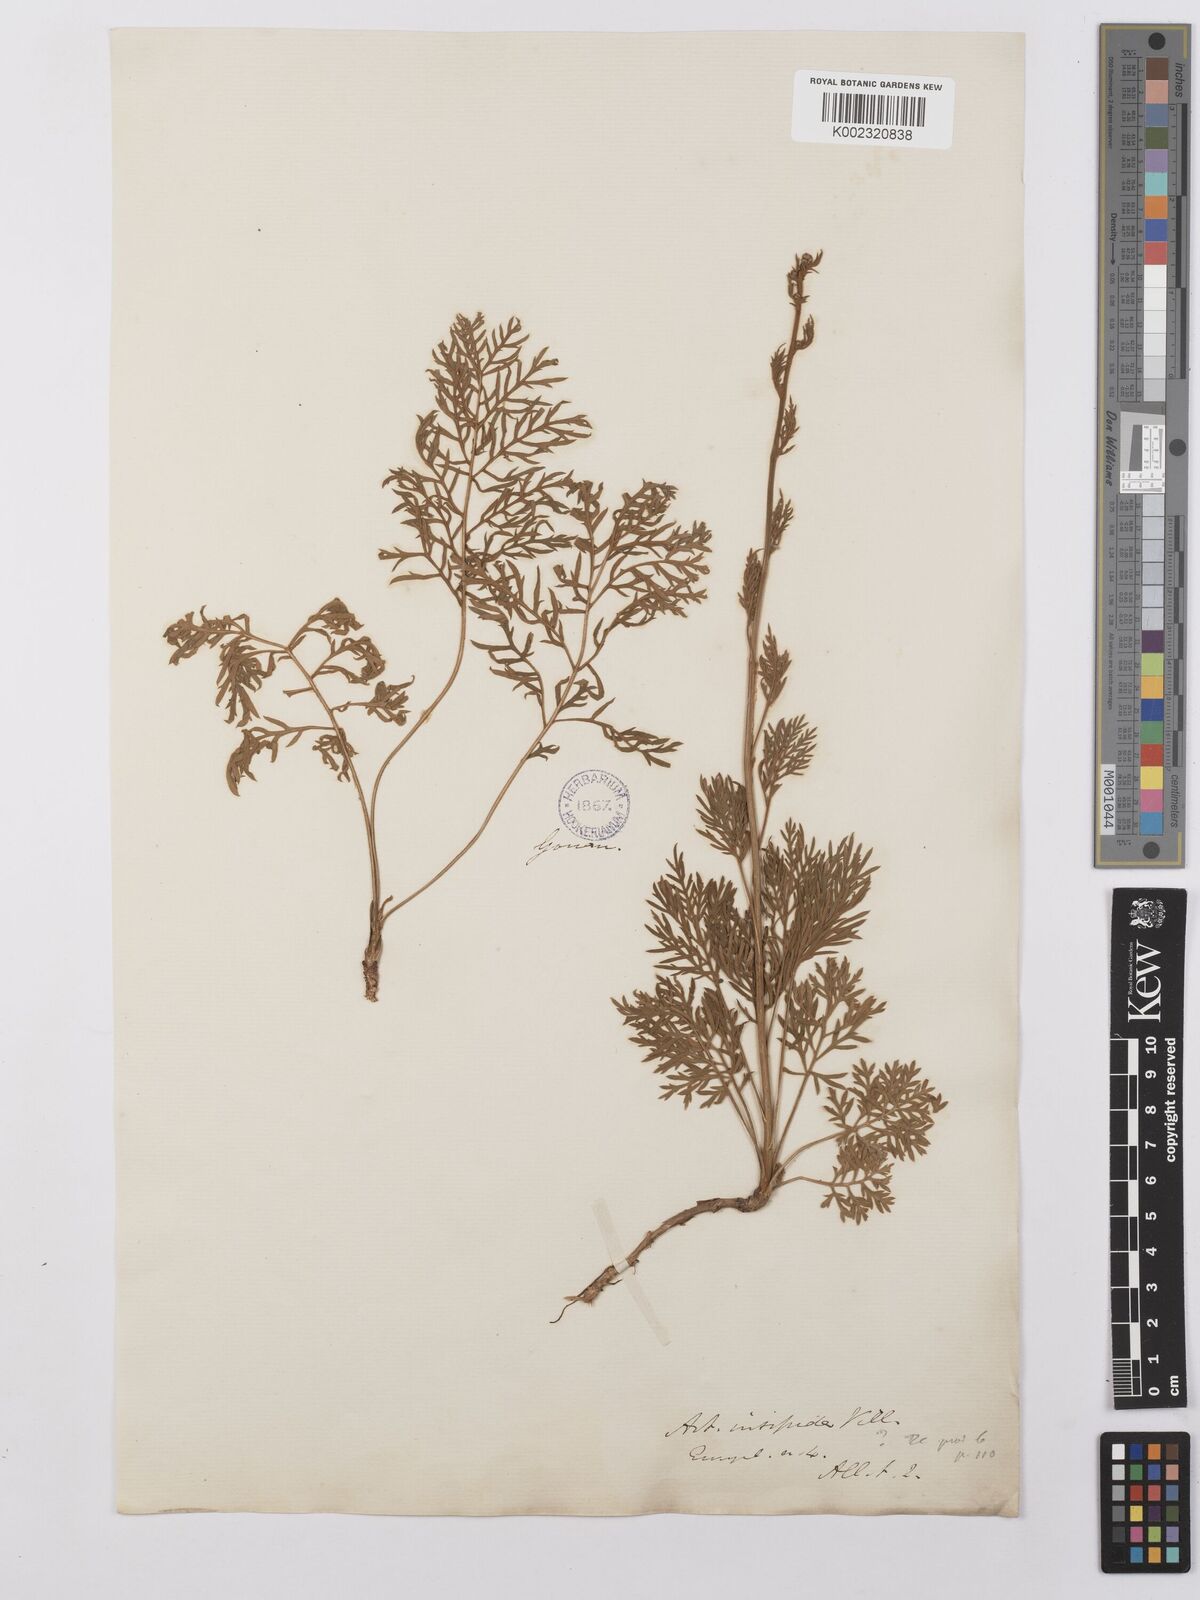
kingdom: Plantae
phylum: Tracheophyta
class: Magnoliopsida
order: Asterales
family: Asteraceae
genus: Artemisia
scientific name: Artemisia insipida
